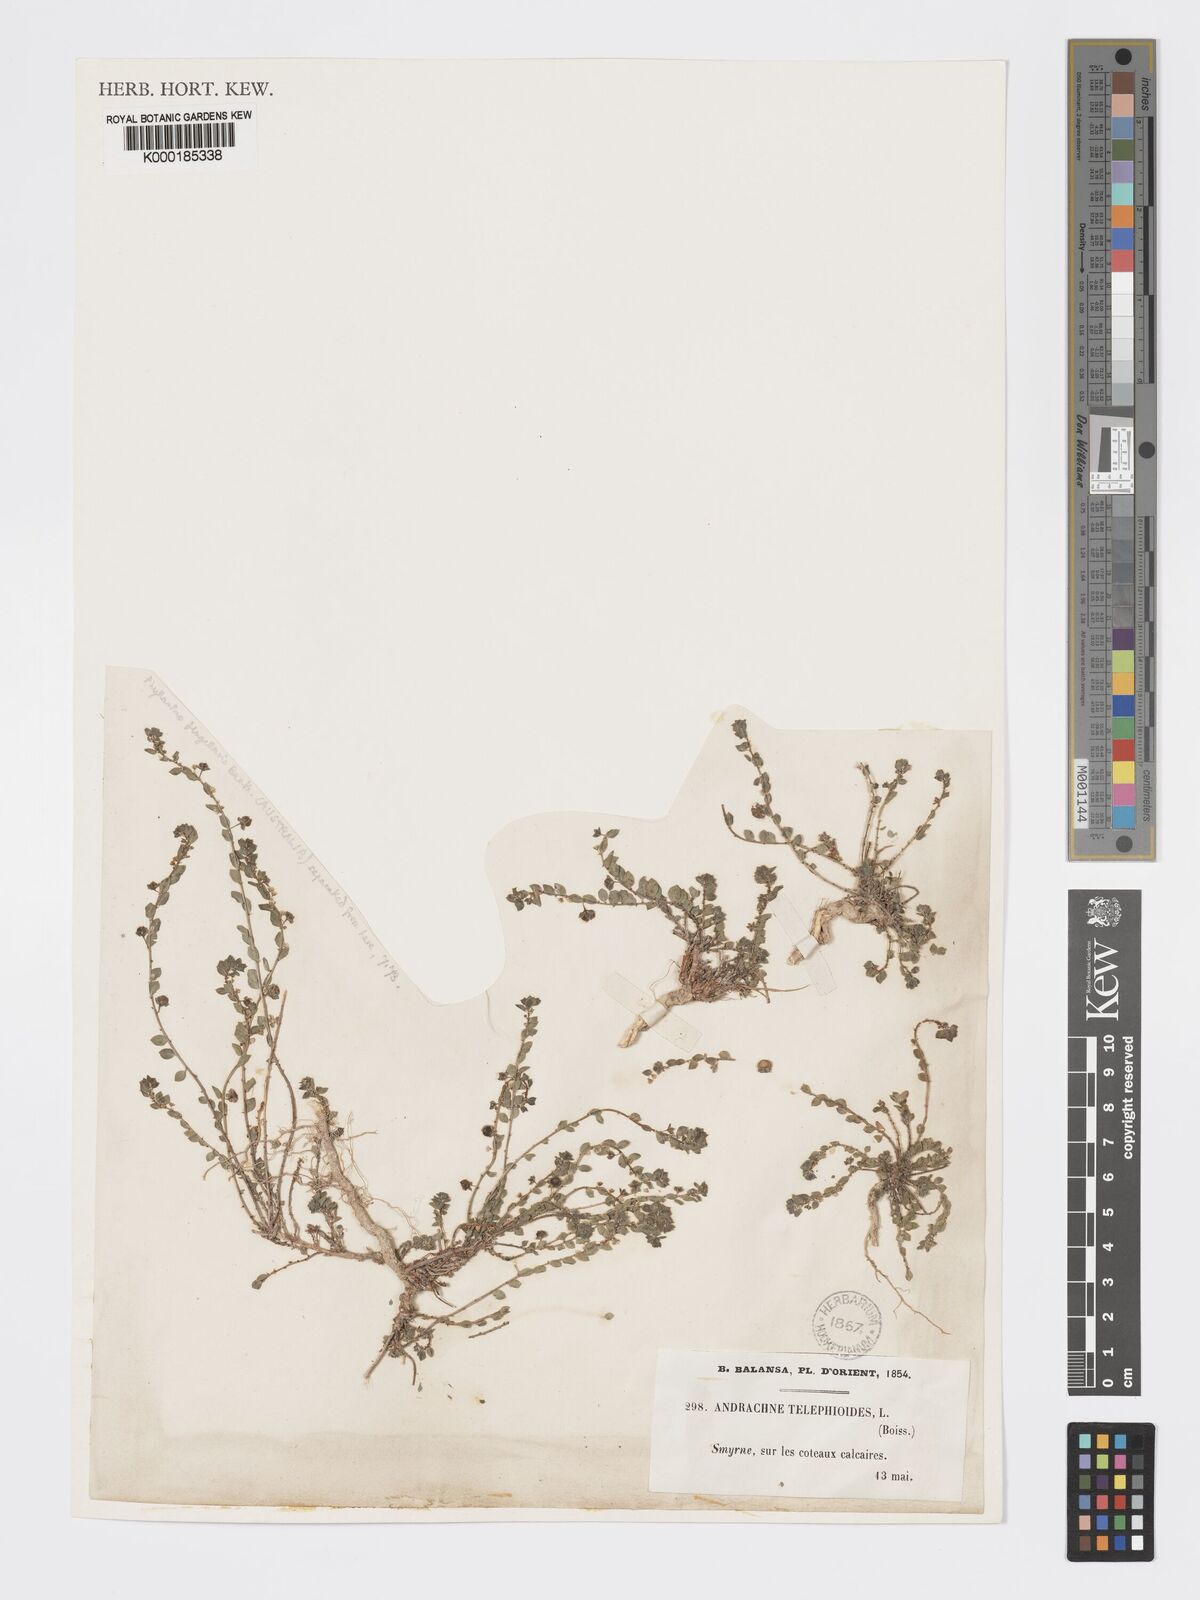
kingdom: Plantae
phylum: Tracheophyta
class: Magnoliopsida
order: Malpighiales
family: Phyllanthaceae
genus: Andrachne
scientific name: Andrachne telephioides
